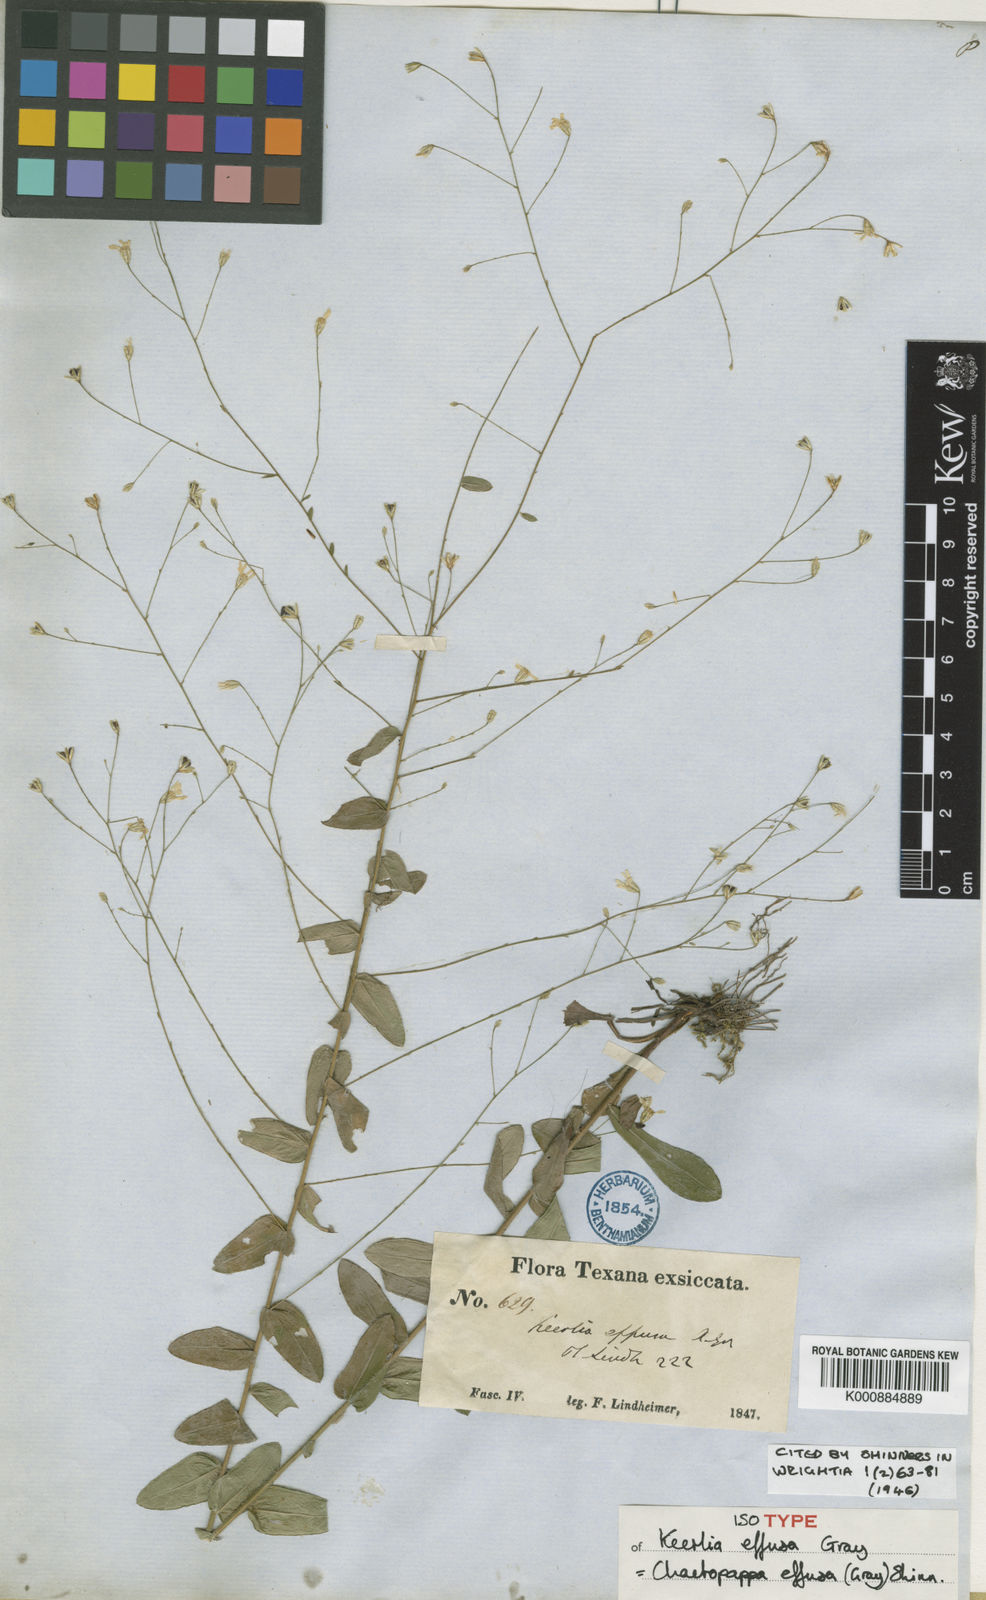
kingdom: Plantae
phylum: Tracheophyta
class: Magnoliopsida
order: Asterales
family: Asteraceae
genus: Chaetopappa
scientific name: Chaetopappa effusa
